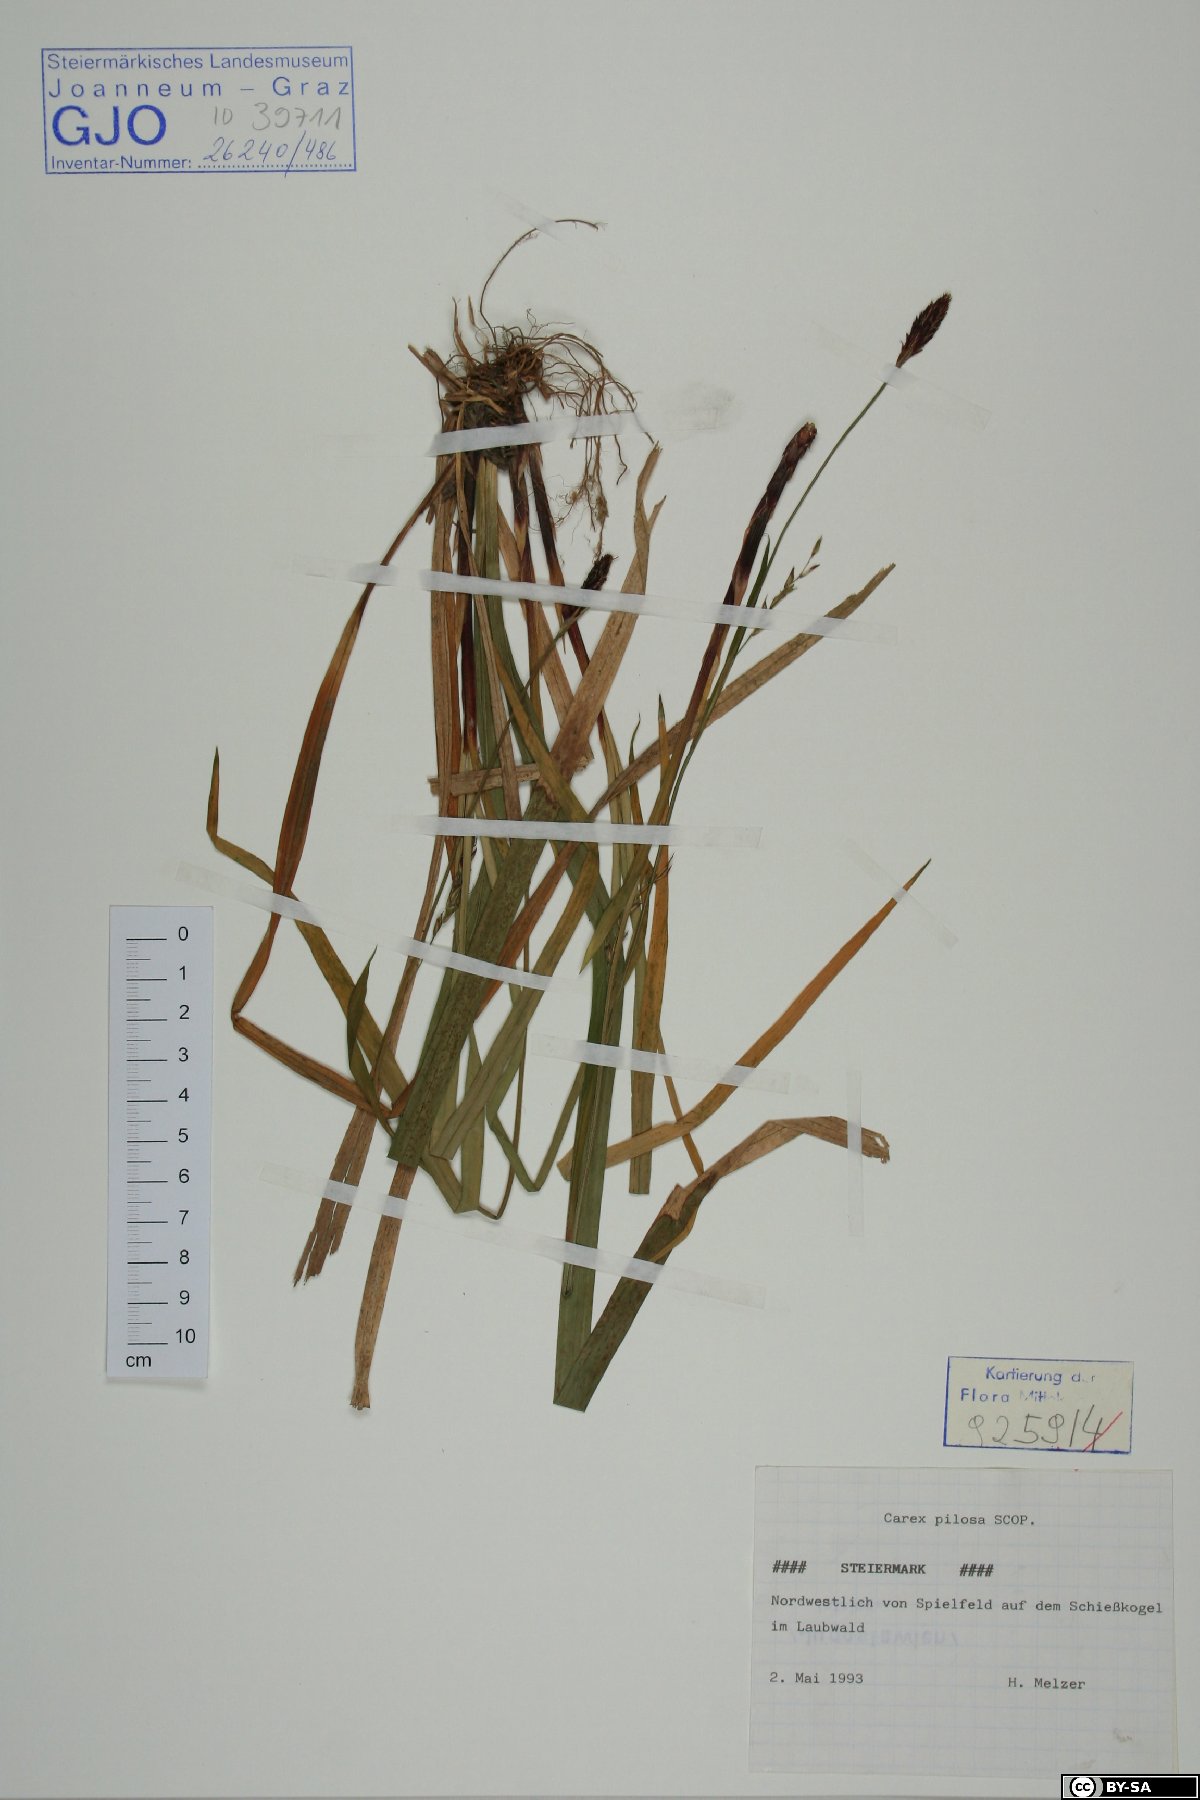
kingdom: Plantae
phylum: Tracheophyta
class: Liliopsida
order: Poales
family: Cyperaceae
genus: Carex
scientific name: Carex pilosa
